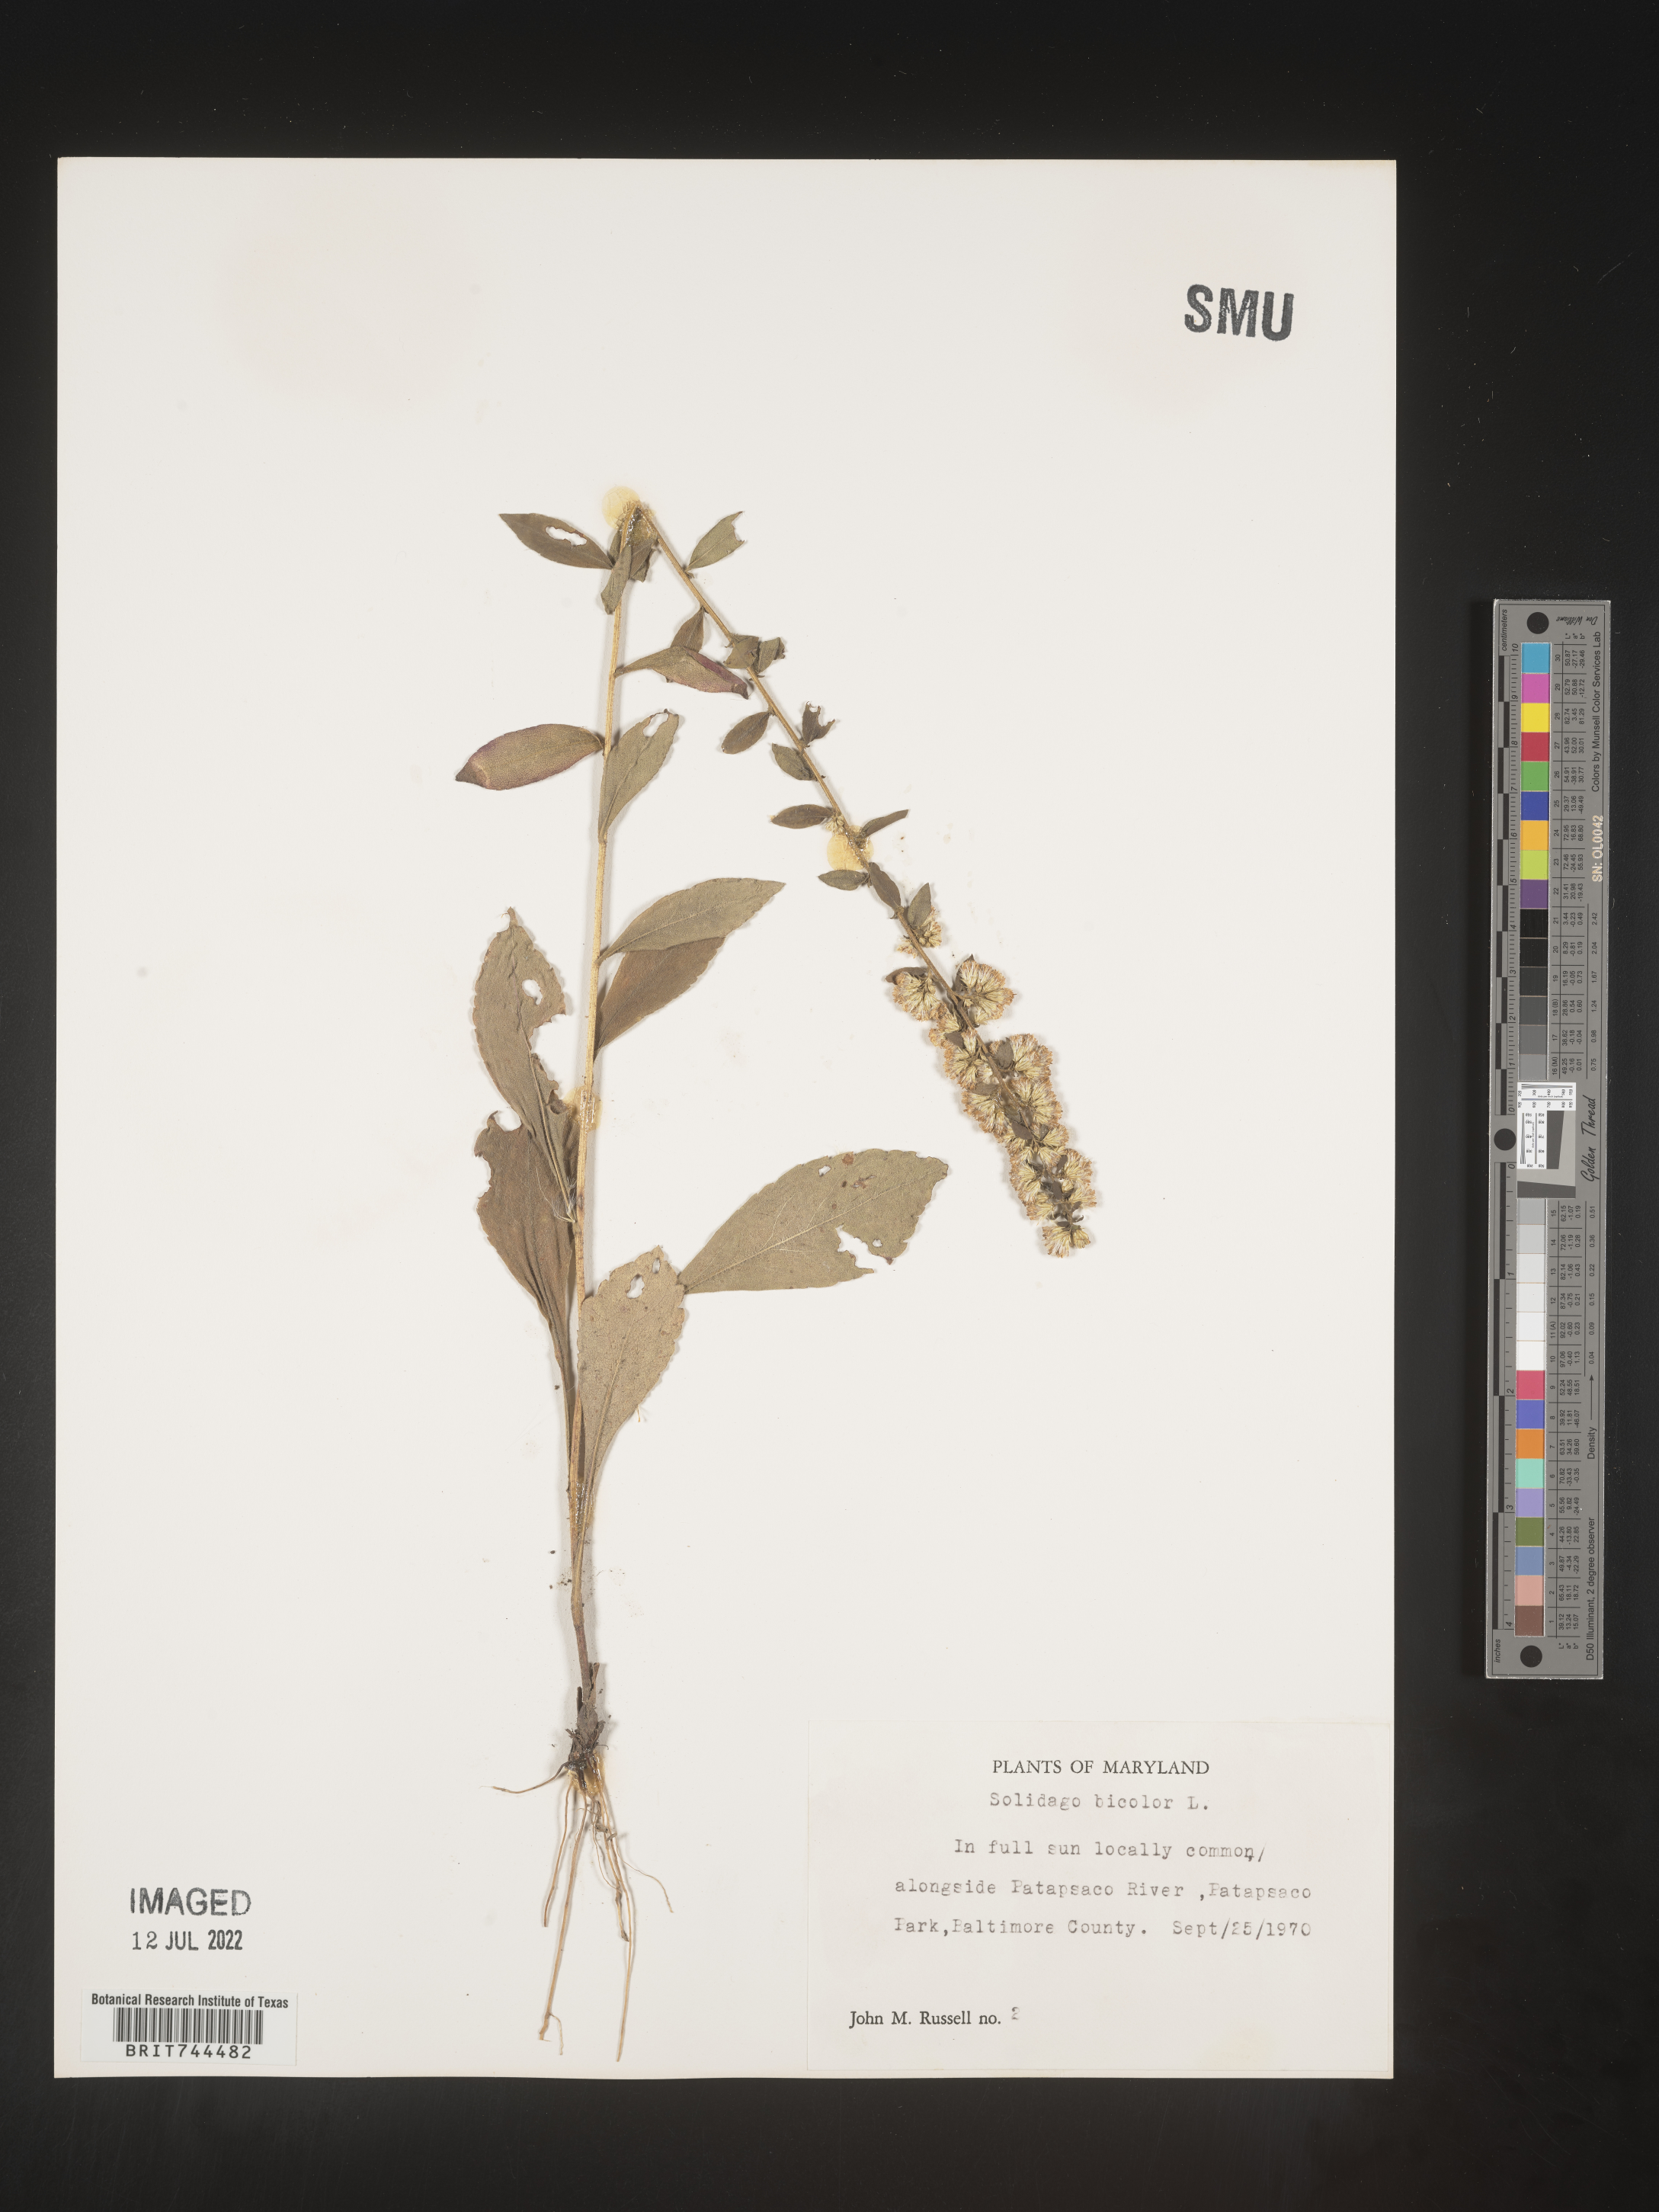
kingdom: Plantae
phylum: Tracheophyta
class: Magnoliopsida
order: Asterales
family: Asteraceae
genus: Solidago
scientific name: Solidago bicolor
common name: Silverrod
